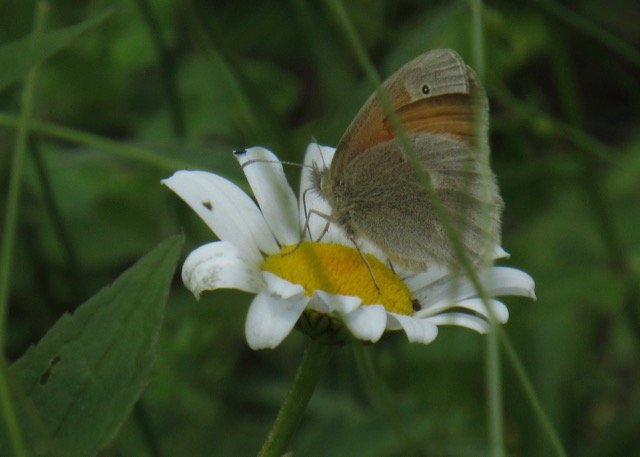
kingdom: Animalia
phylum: Arthropoda
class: Insecta
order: Lepidoptera
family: Nymphalidae
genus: Coenonympha
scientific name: Coenonympha tullia
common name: Large Heath
